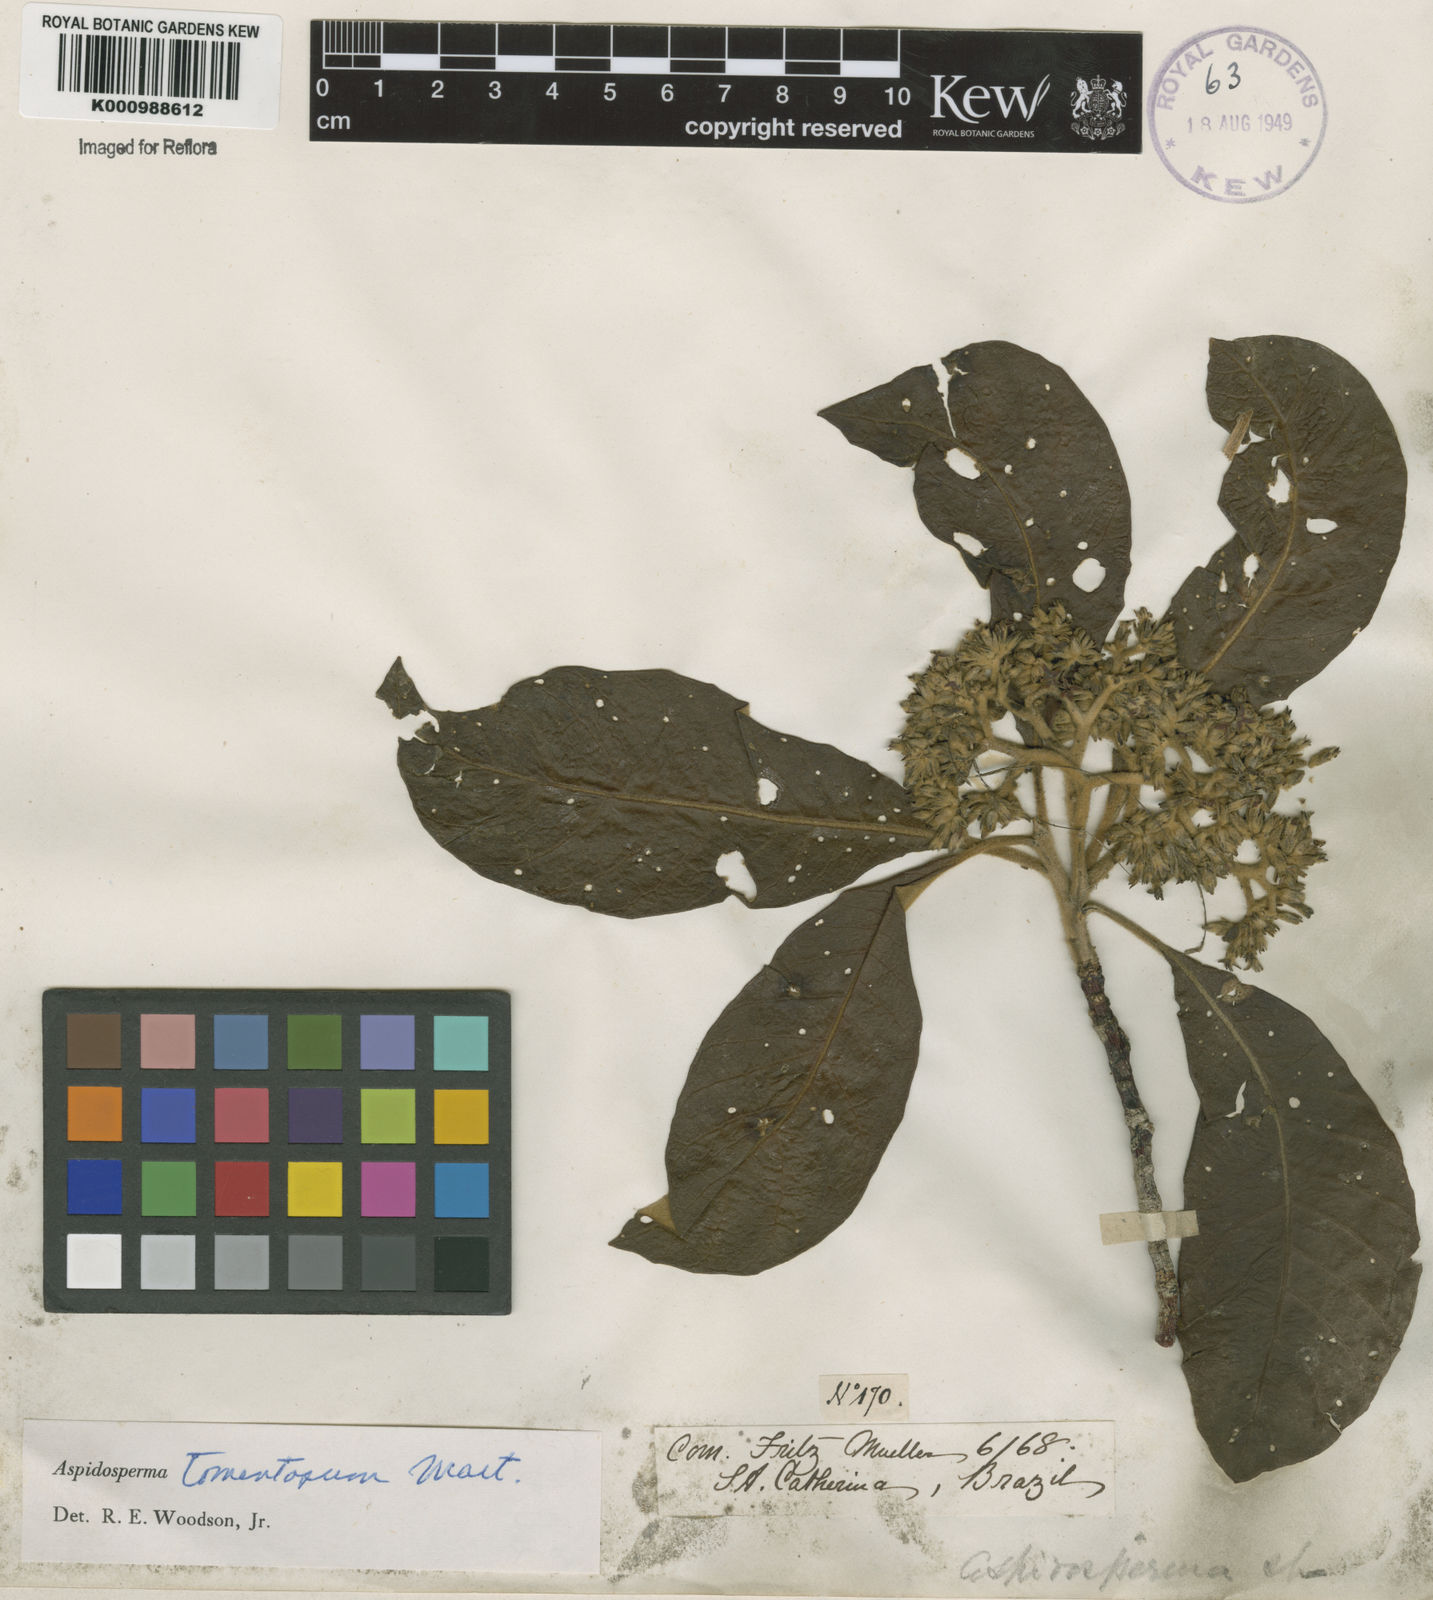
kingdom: Plantae
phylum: Tracheophyta
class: Magnoliopsida
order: Gentianales
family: Apocynaceae
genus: Aspidosperma
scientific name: Aspidosperma tomentosum
